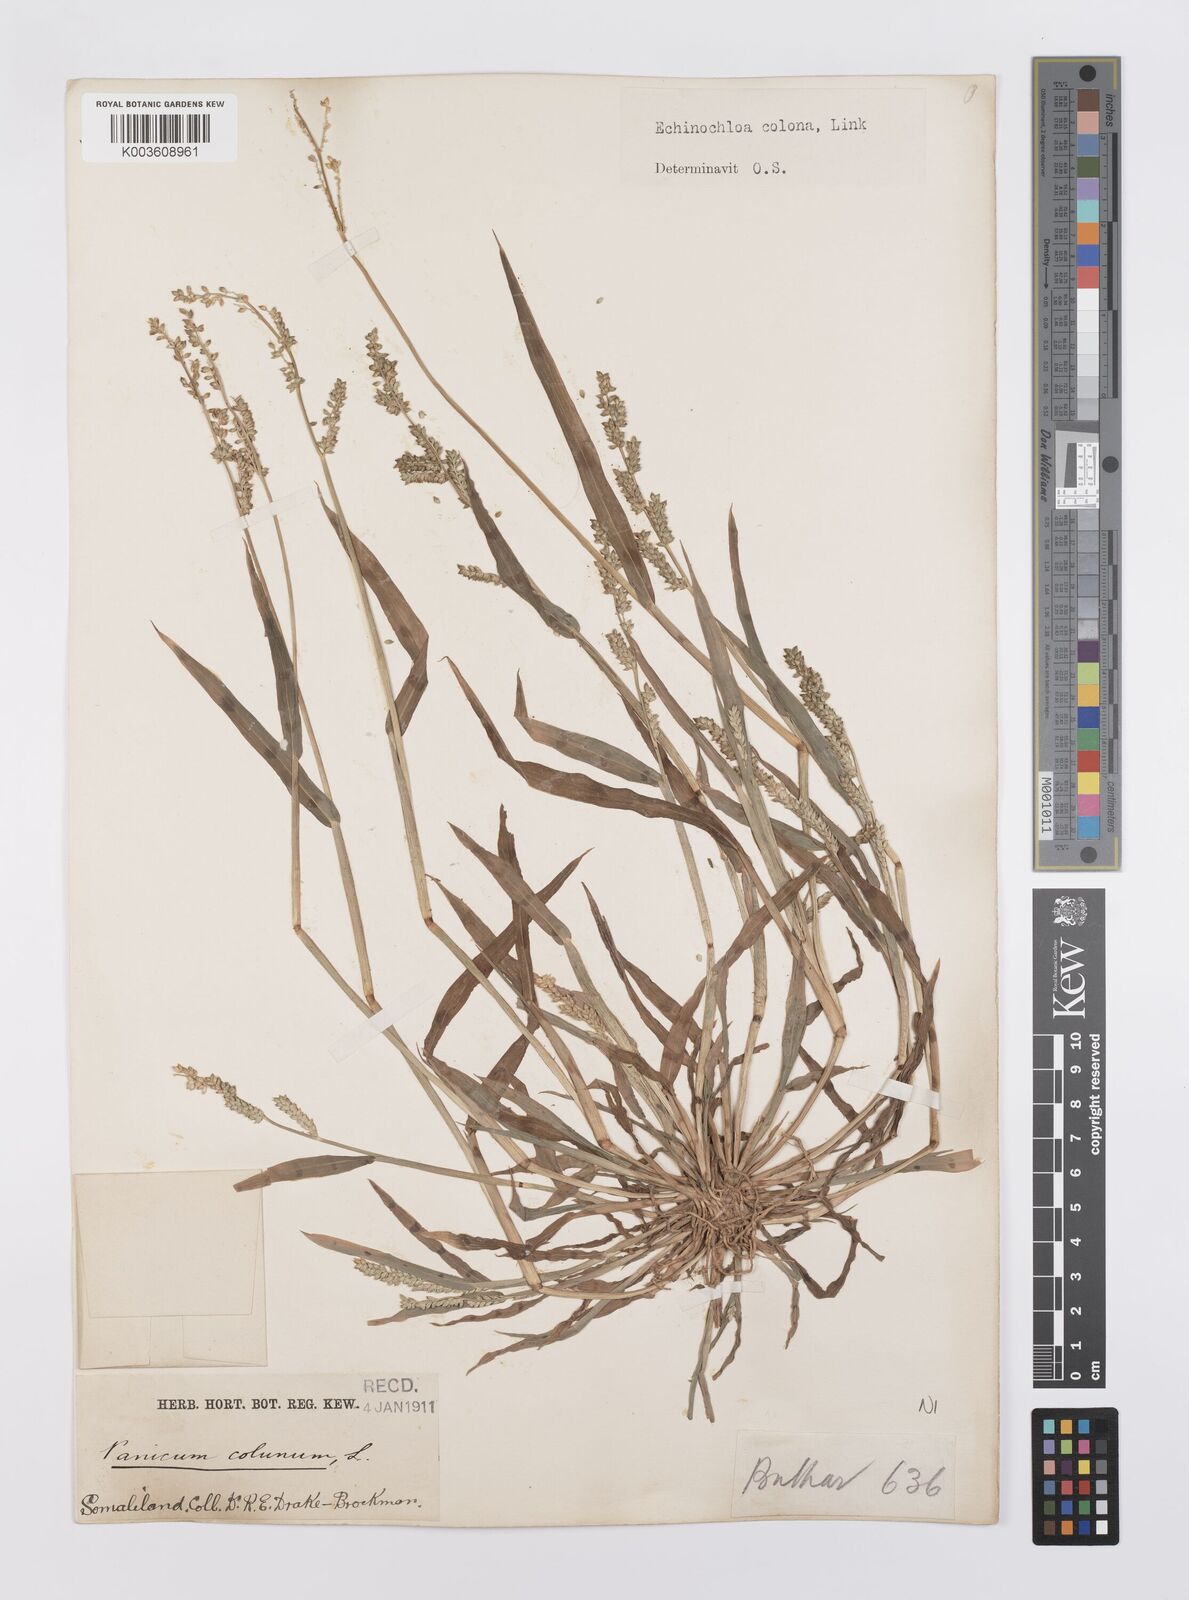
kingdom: Plantae
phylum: Tracheophyta
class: Liliopsida
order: Poales
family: Poaceae
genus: Echinochloa
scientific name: Echinochloa colonum
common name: Jungle rice
